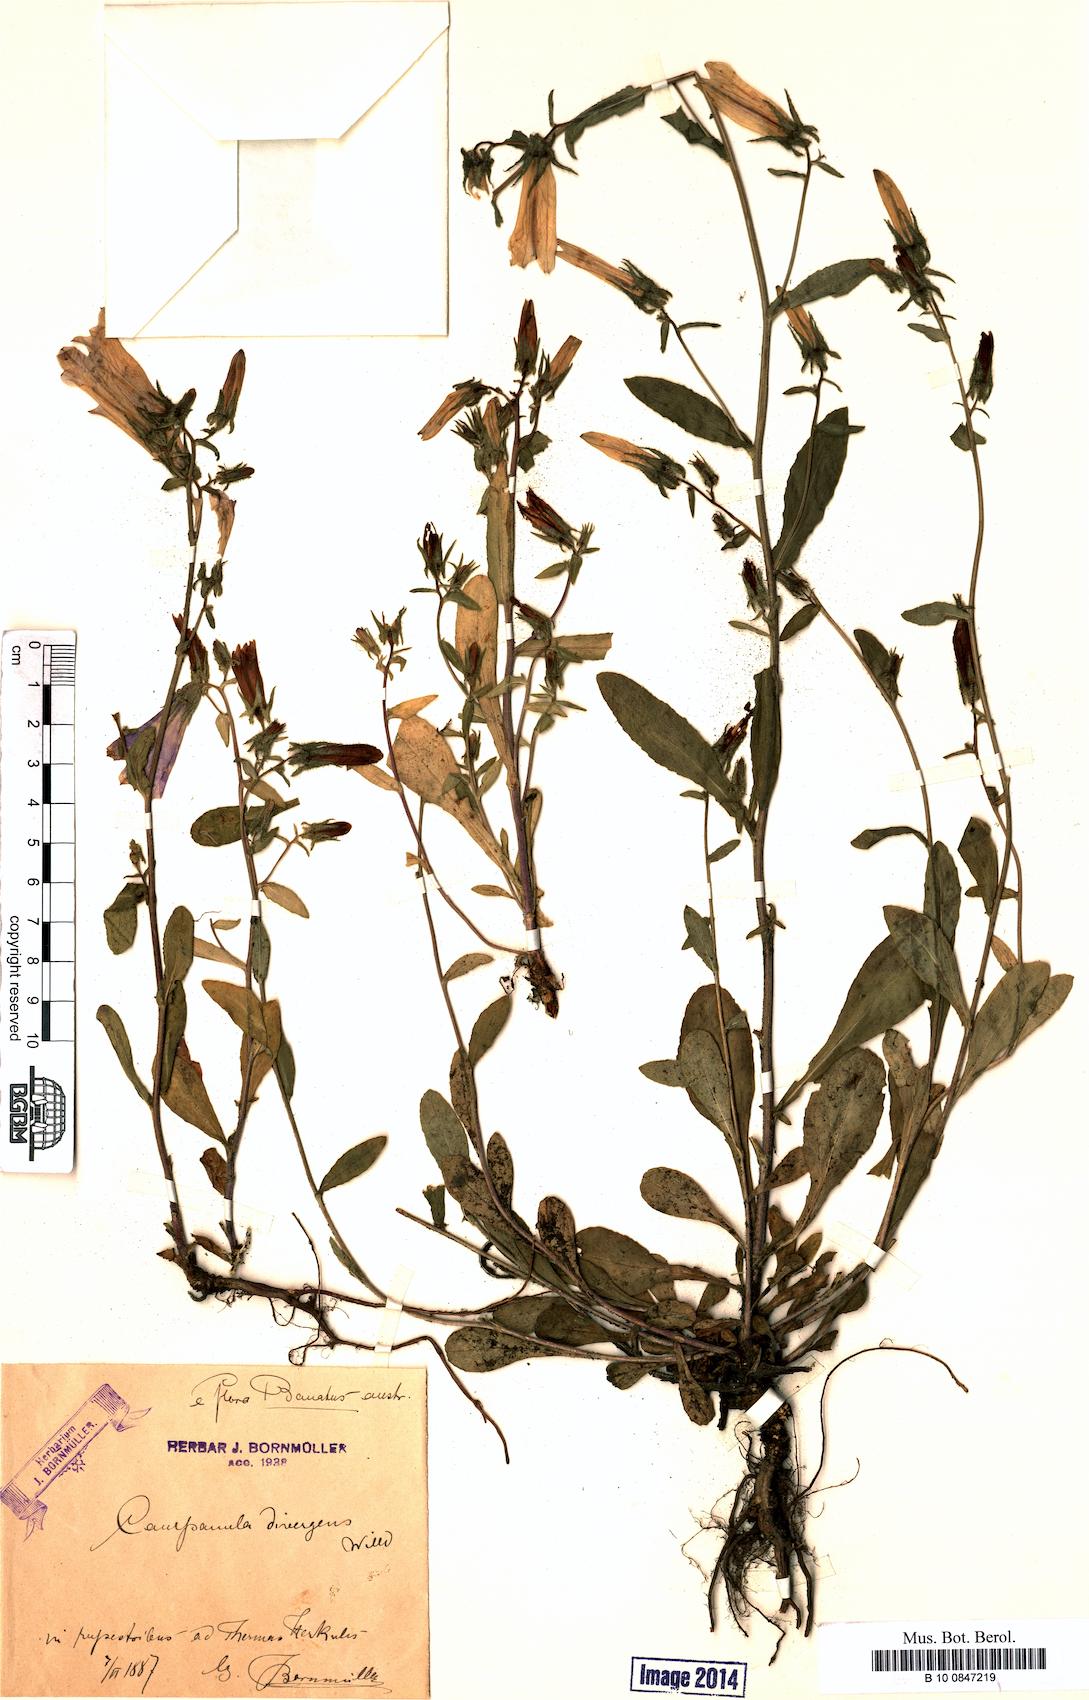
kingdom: Plantae
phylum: Tracheophyta
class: Magnoliopsida
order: Asterales
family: Campanulaceae
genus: Campanula
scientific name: Campanula sibirica
